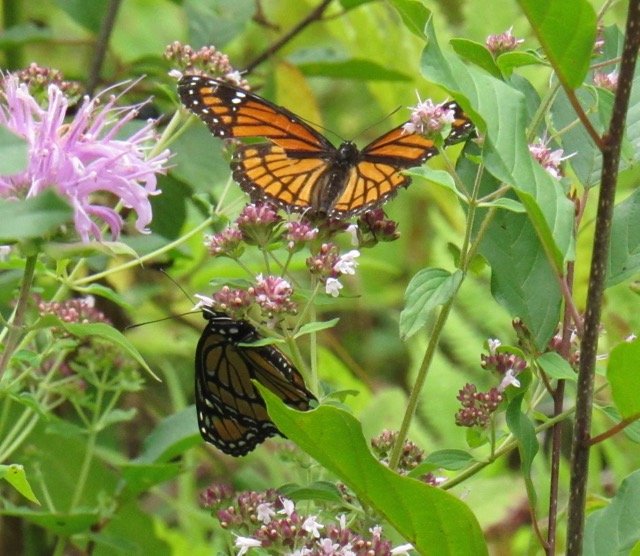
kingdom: Animalia
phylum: Arthropoda
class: Insecta
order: Lepidoptera
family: Nymphalidae
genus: Limenitis
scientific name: Limenitis archippus
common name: Viceroy
